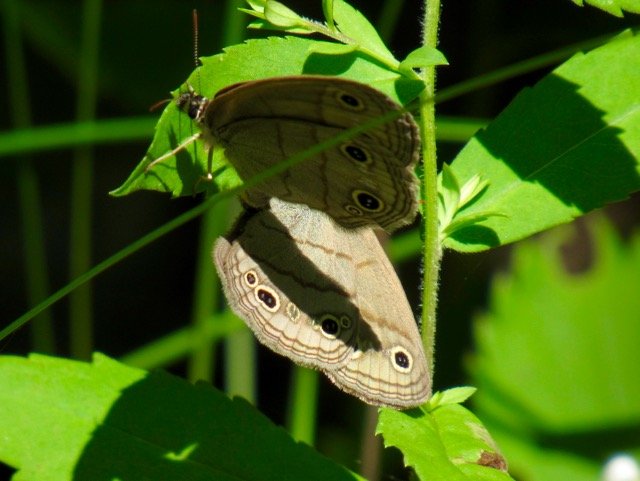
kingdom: Animalia
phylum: Arthropoda
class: Insecta
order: Lepidoptera
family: Nymphalidae
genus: Euptychia
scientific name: Euptychia cymela
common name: Little Wood Satyr
